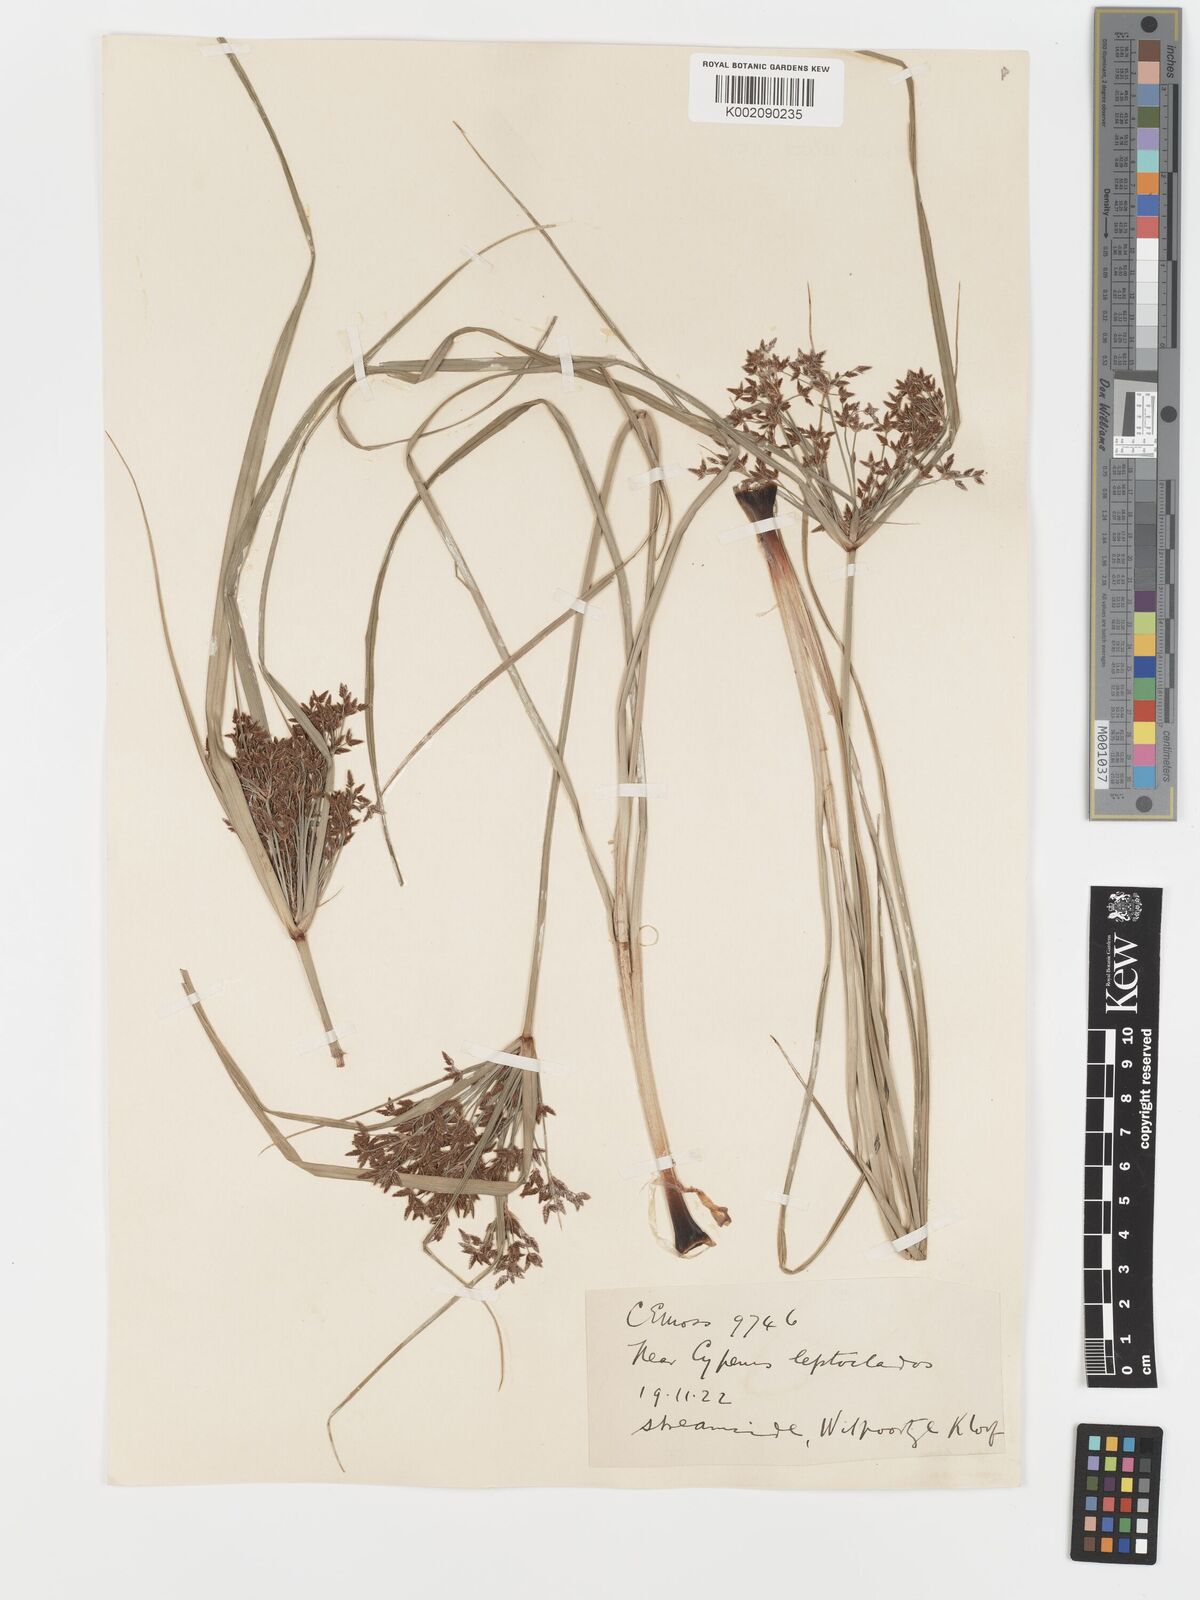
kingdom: Plantae
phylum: Tracheophyta
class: Liliopsida
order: Poales
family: Cyperaceae
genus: Cyperus
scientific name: Cyperus leptocladus
